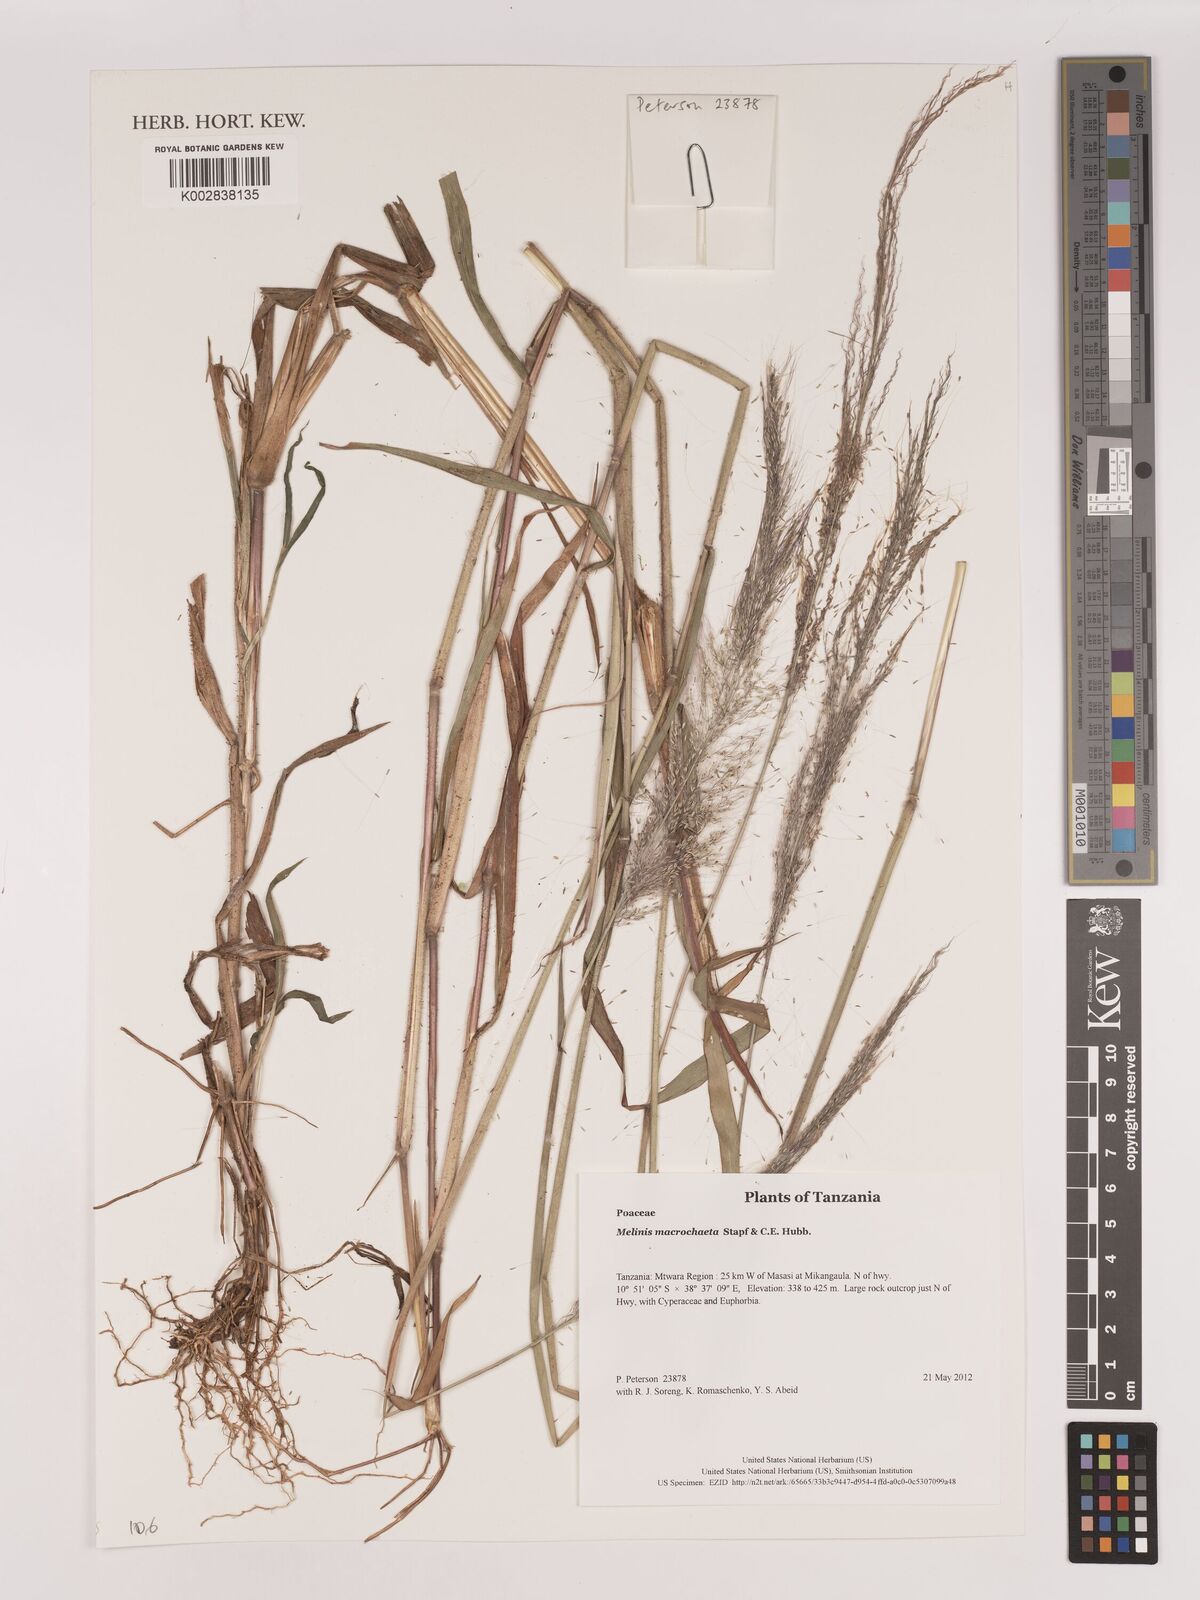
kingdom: Plantae
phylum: Tracheophyta
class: Liliopsida
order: Poales
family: Poaceae
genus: Melinis
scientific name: Melinis macrochaeta
